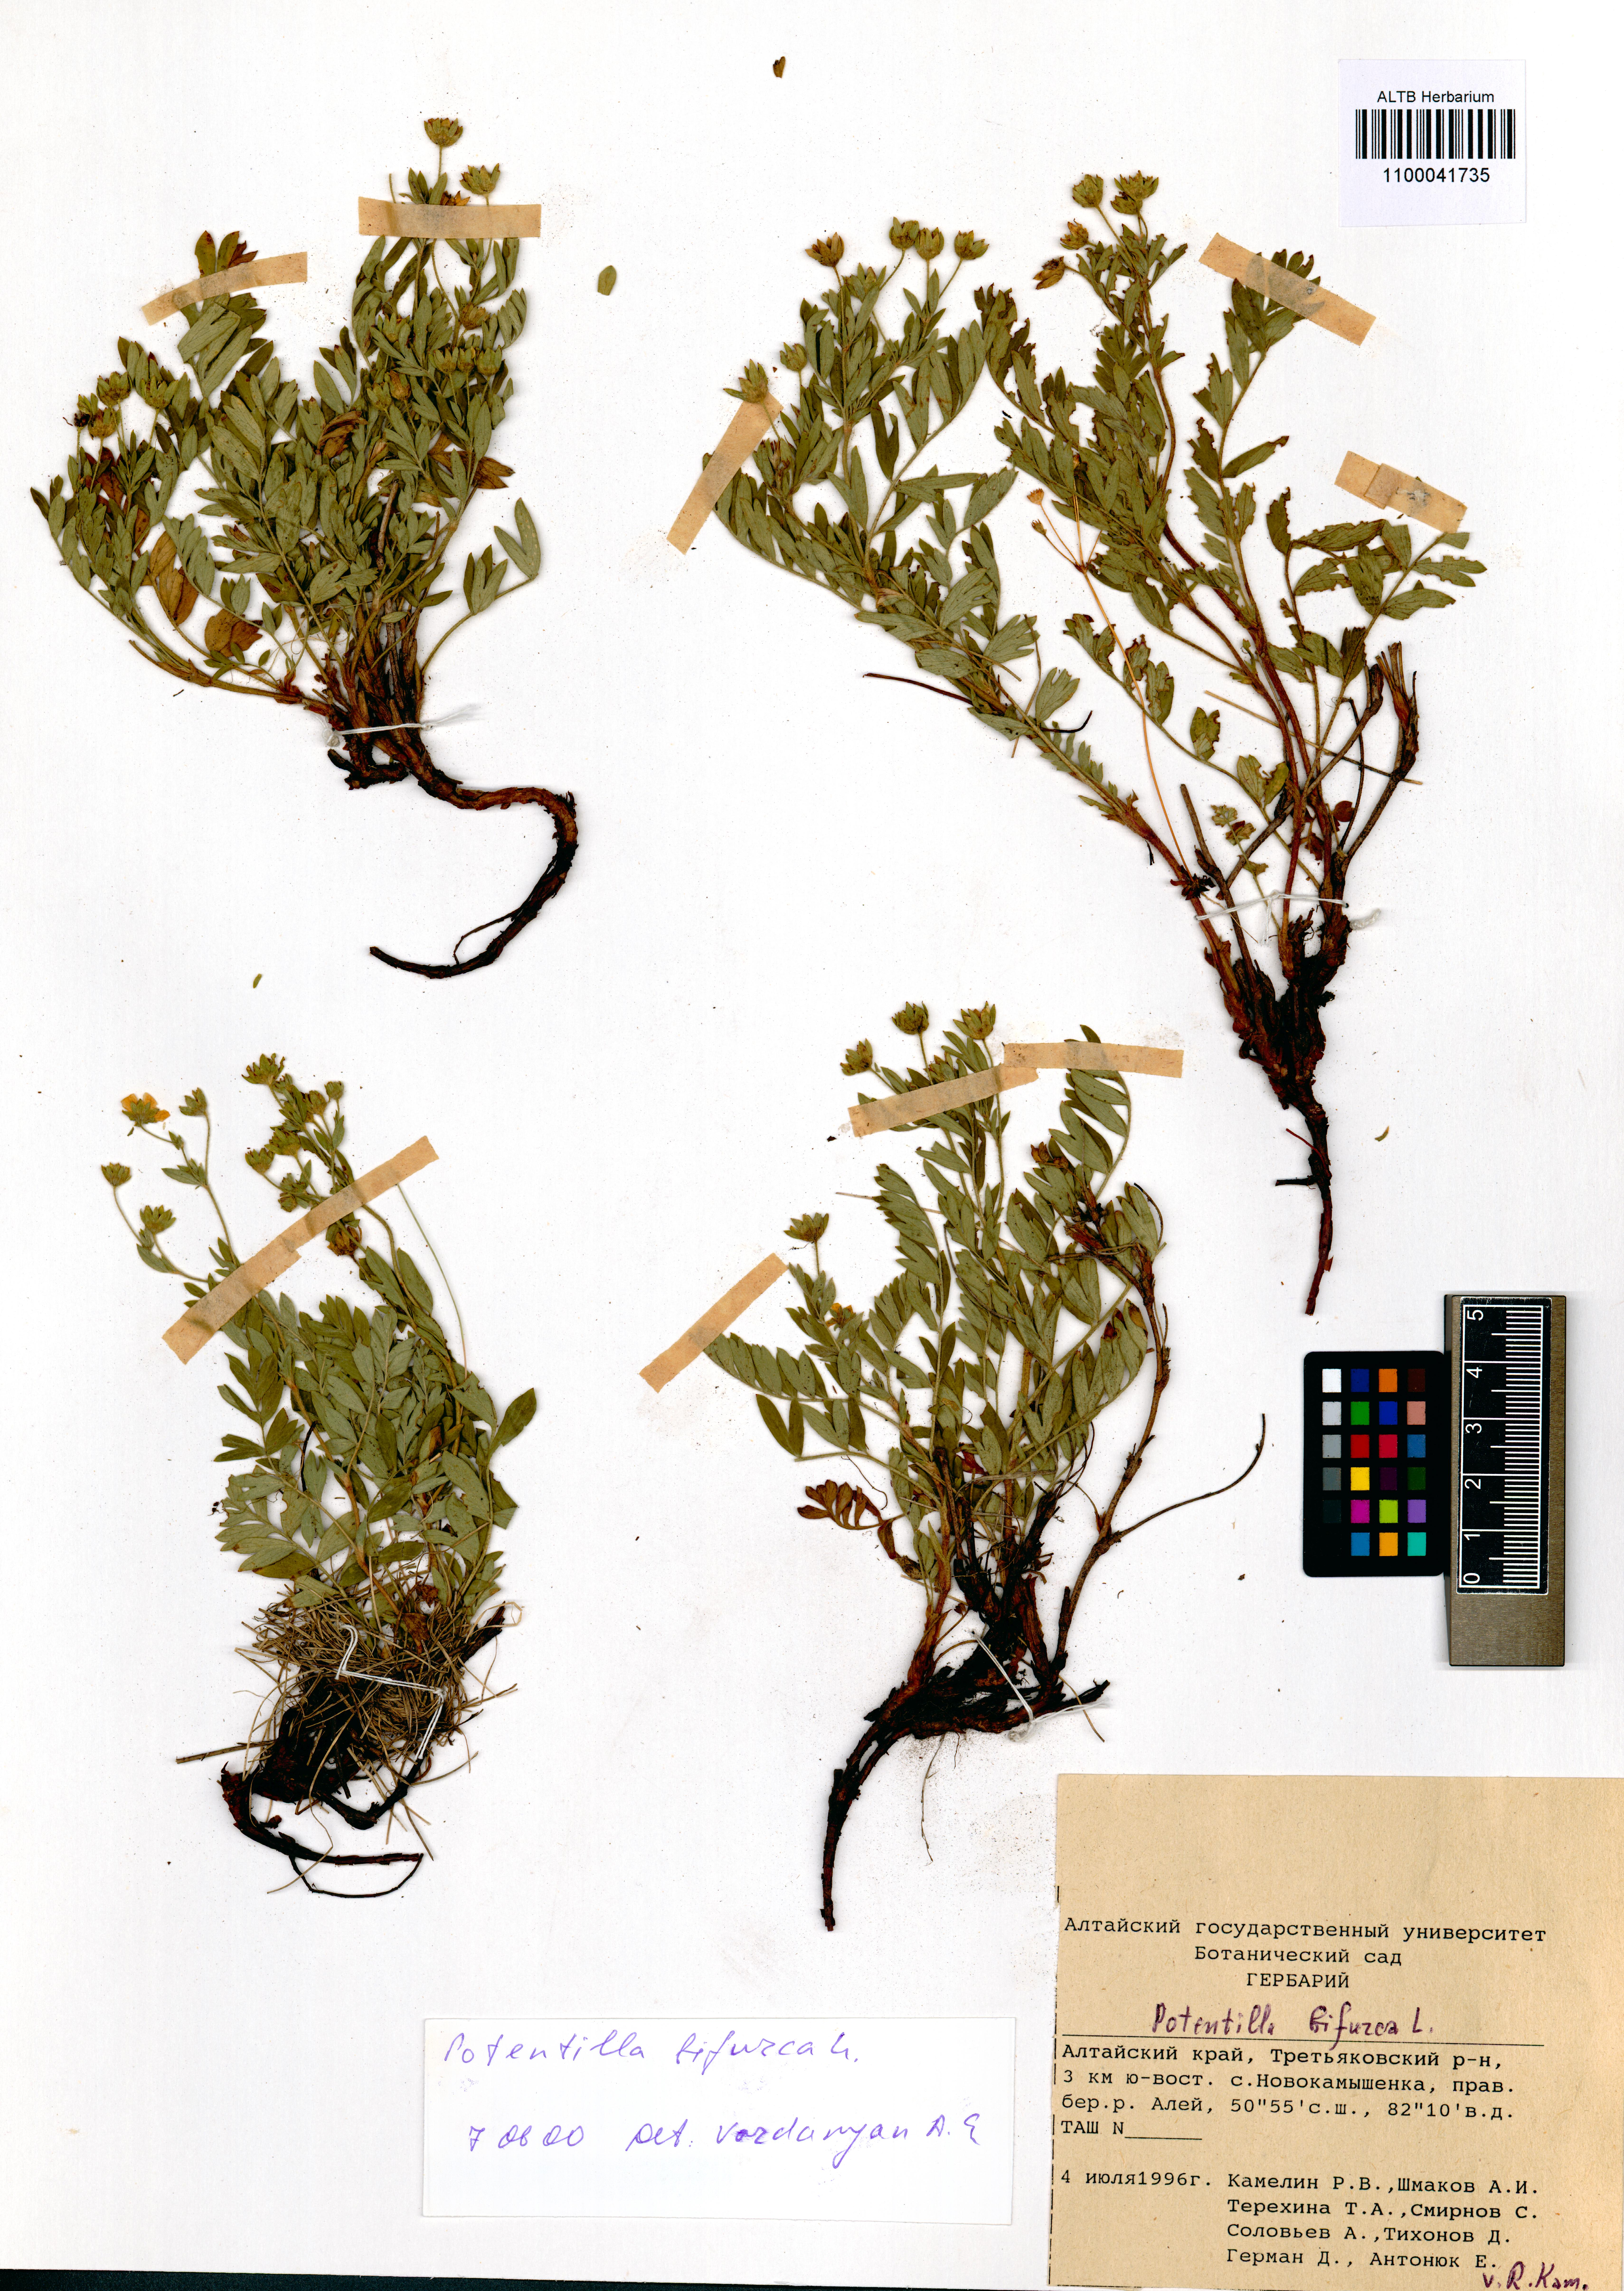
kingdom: Plantae
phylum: Tracheophyta
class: Magnoliopsida
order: Rosales
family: Rosaceae
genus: Sibbaldianthe
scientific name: Sibbaldianthe bifurca
